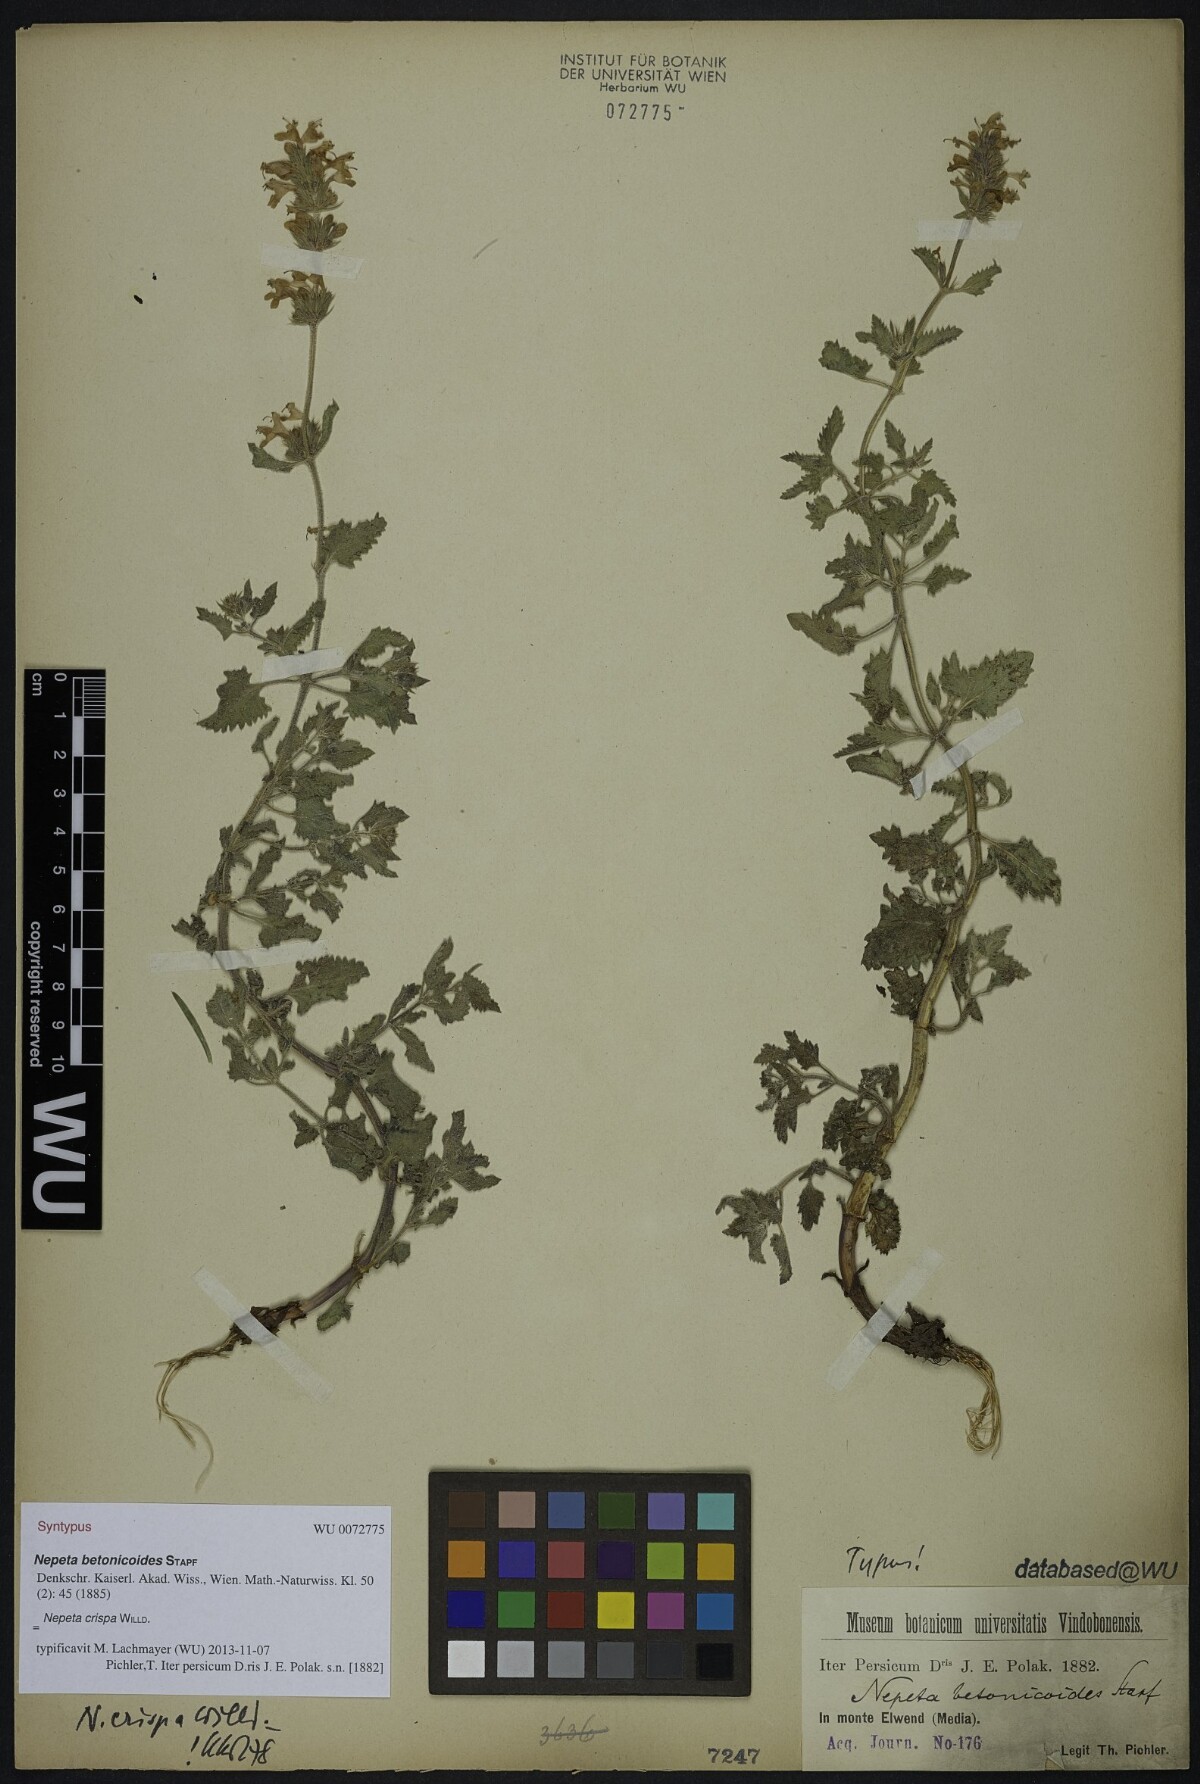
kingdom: Plantae
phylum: Tracheophyta
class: Magnoliopsida
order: Lamiales
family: Lamiaceae
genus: Nepeta
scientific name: Nepeta crispa
